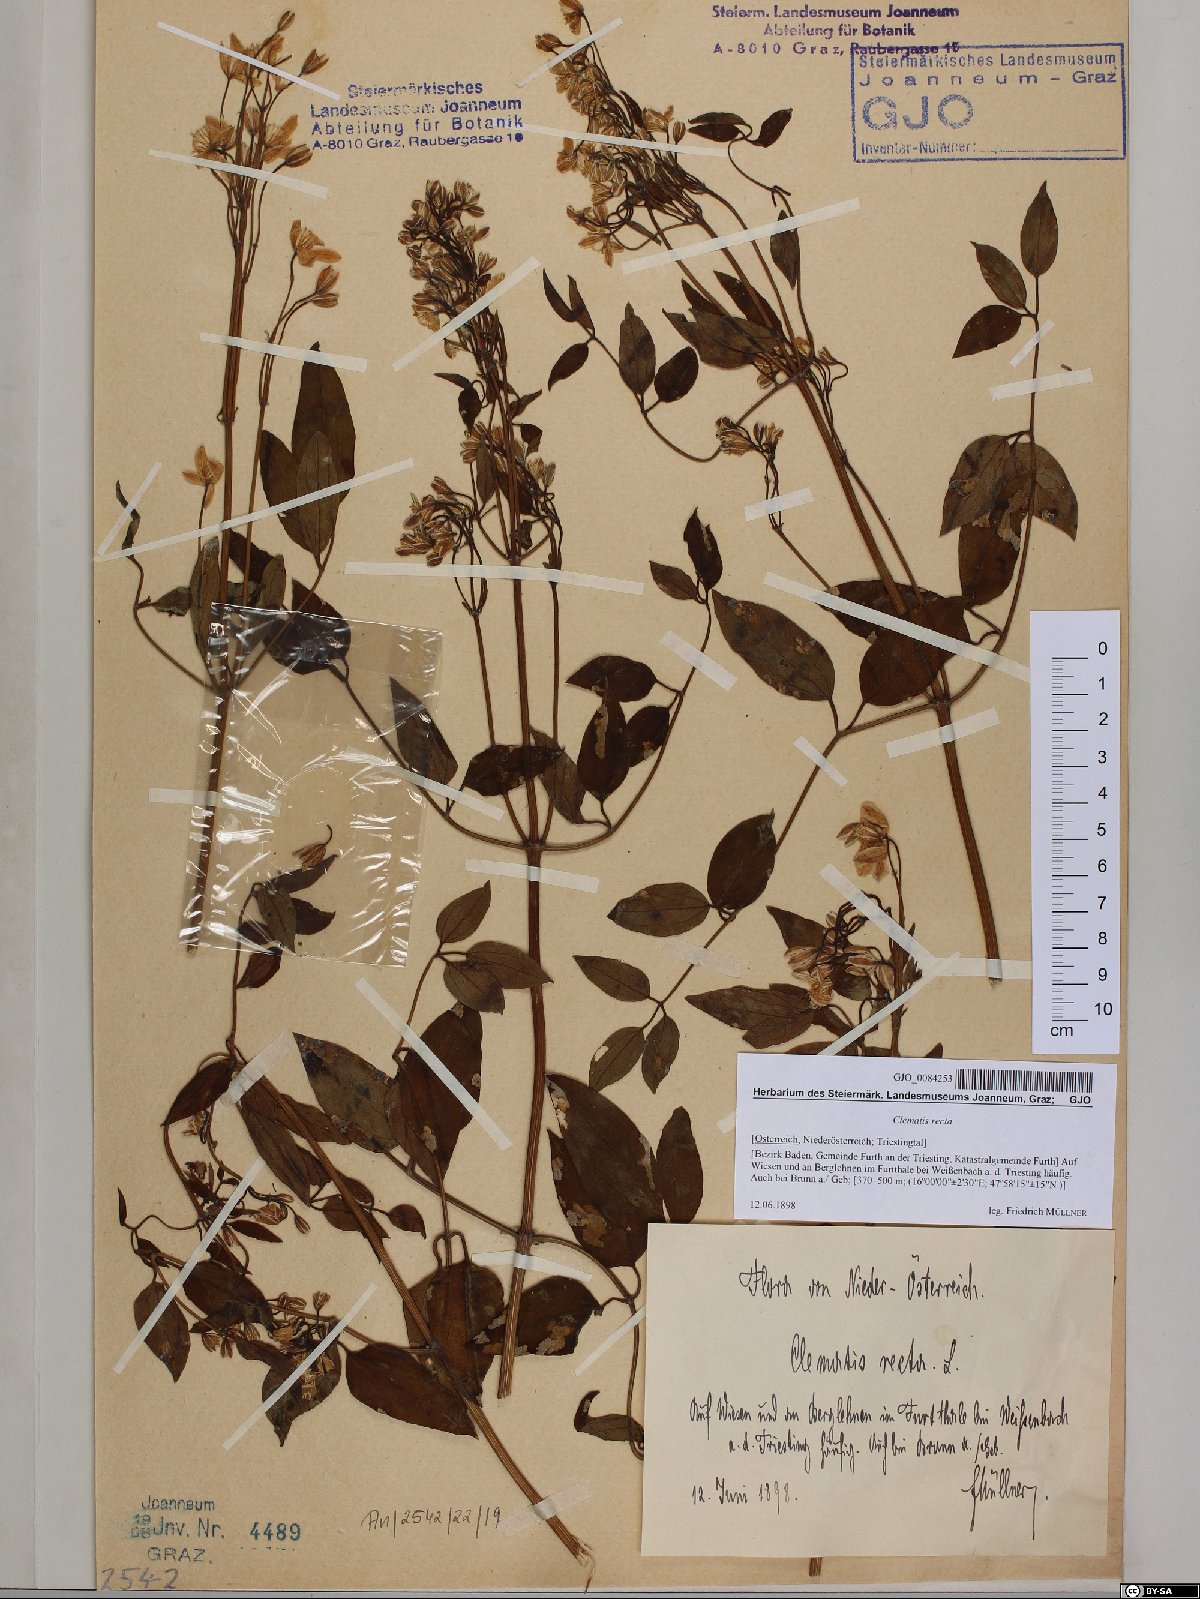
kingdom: Plantae
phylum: Tracheophyta
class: Magnoliopsida
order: Ranunculales
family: Ranunculaceae
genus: Clematis
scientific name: Clematis recta
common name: Ground clematis
